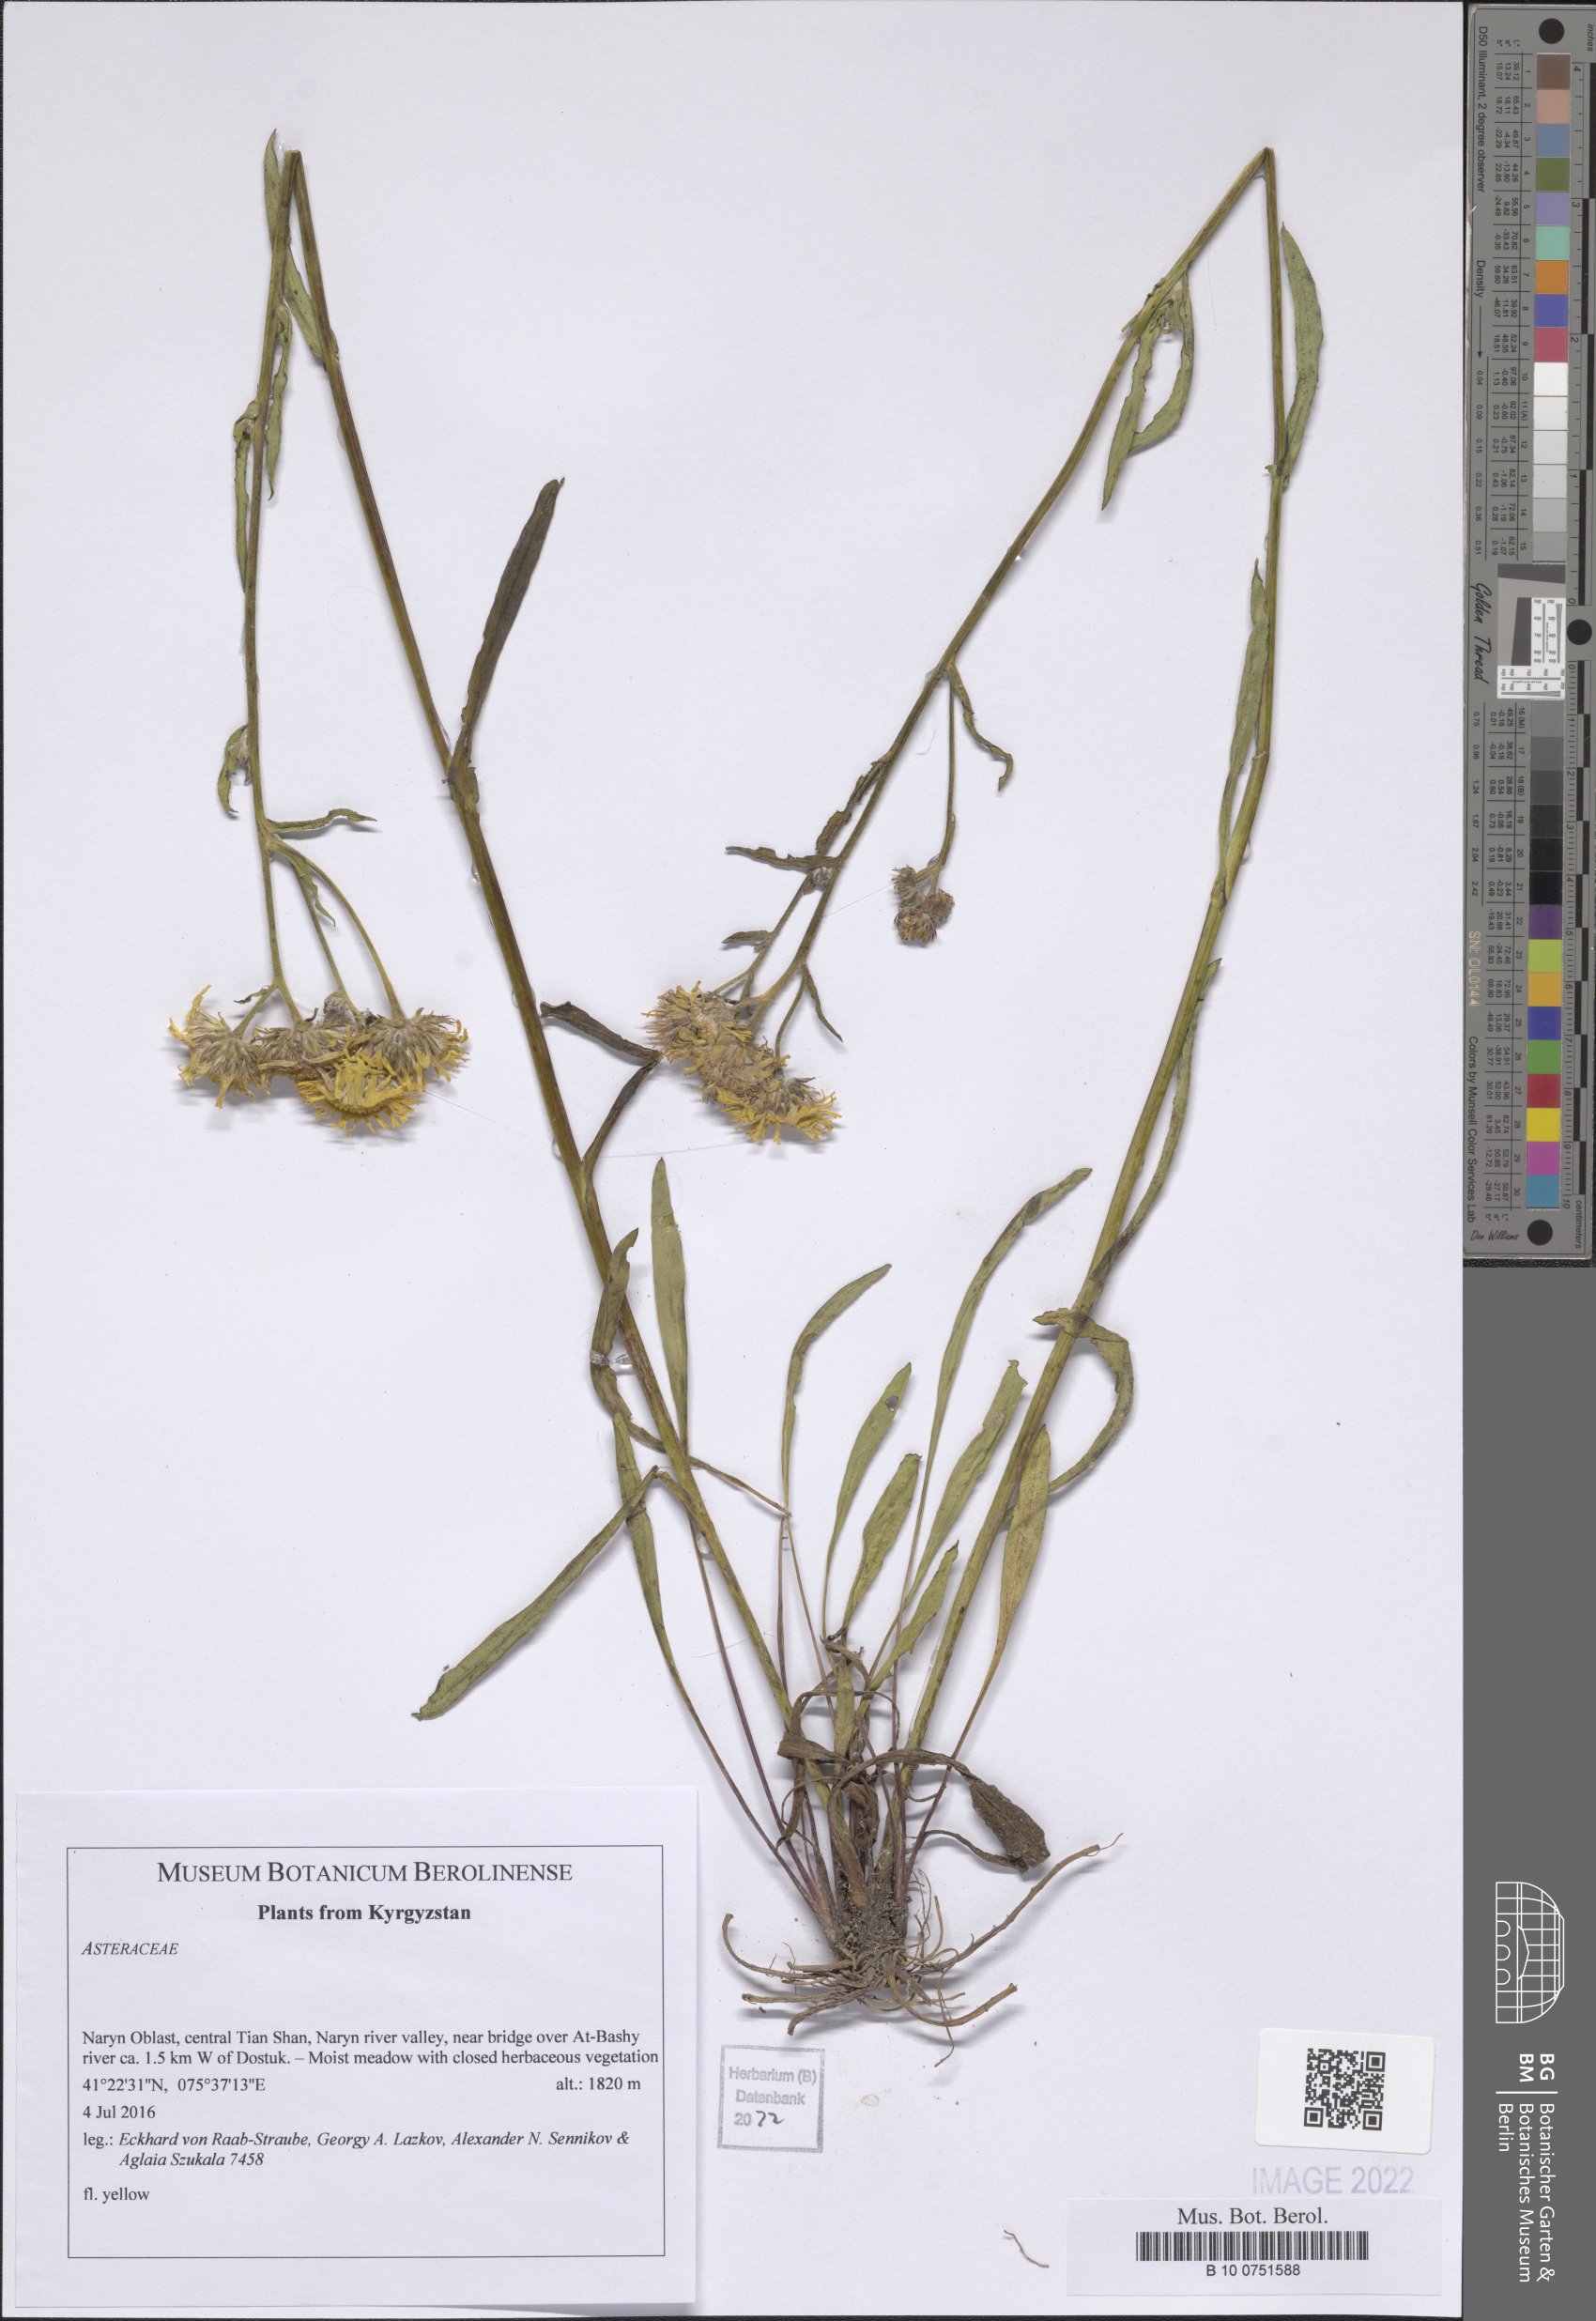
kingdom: Plantae
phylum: Tracheophyta
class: Magnoliopsida
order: Asterales
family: Asteraceae
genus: Xeranthemum
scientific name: Xeranthemum longepapposum
